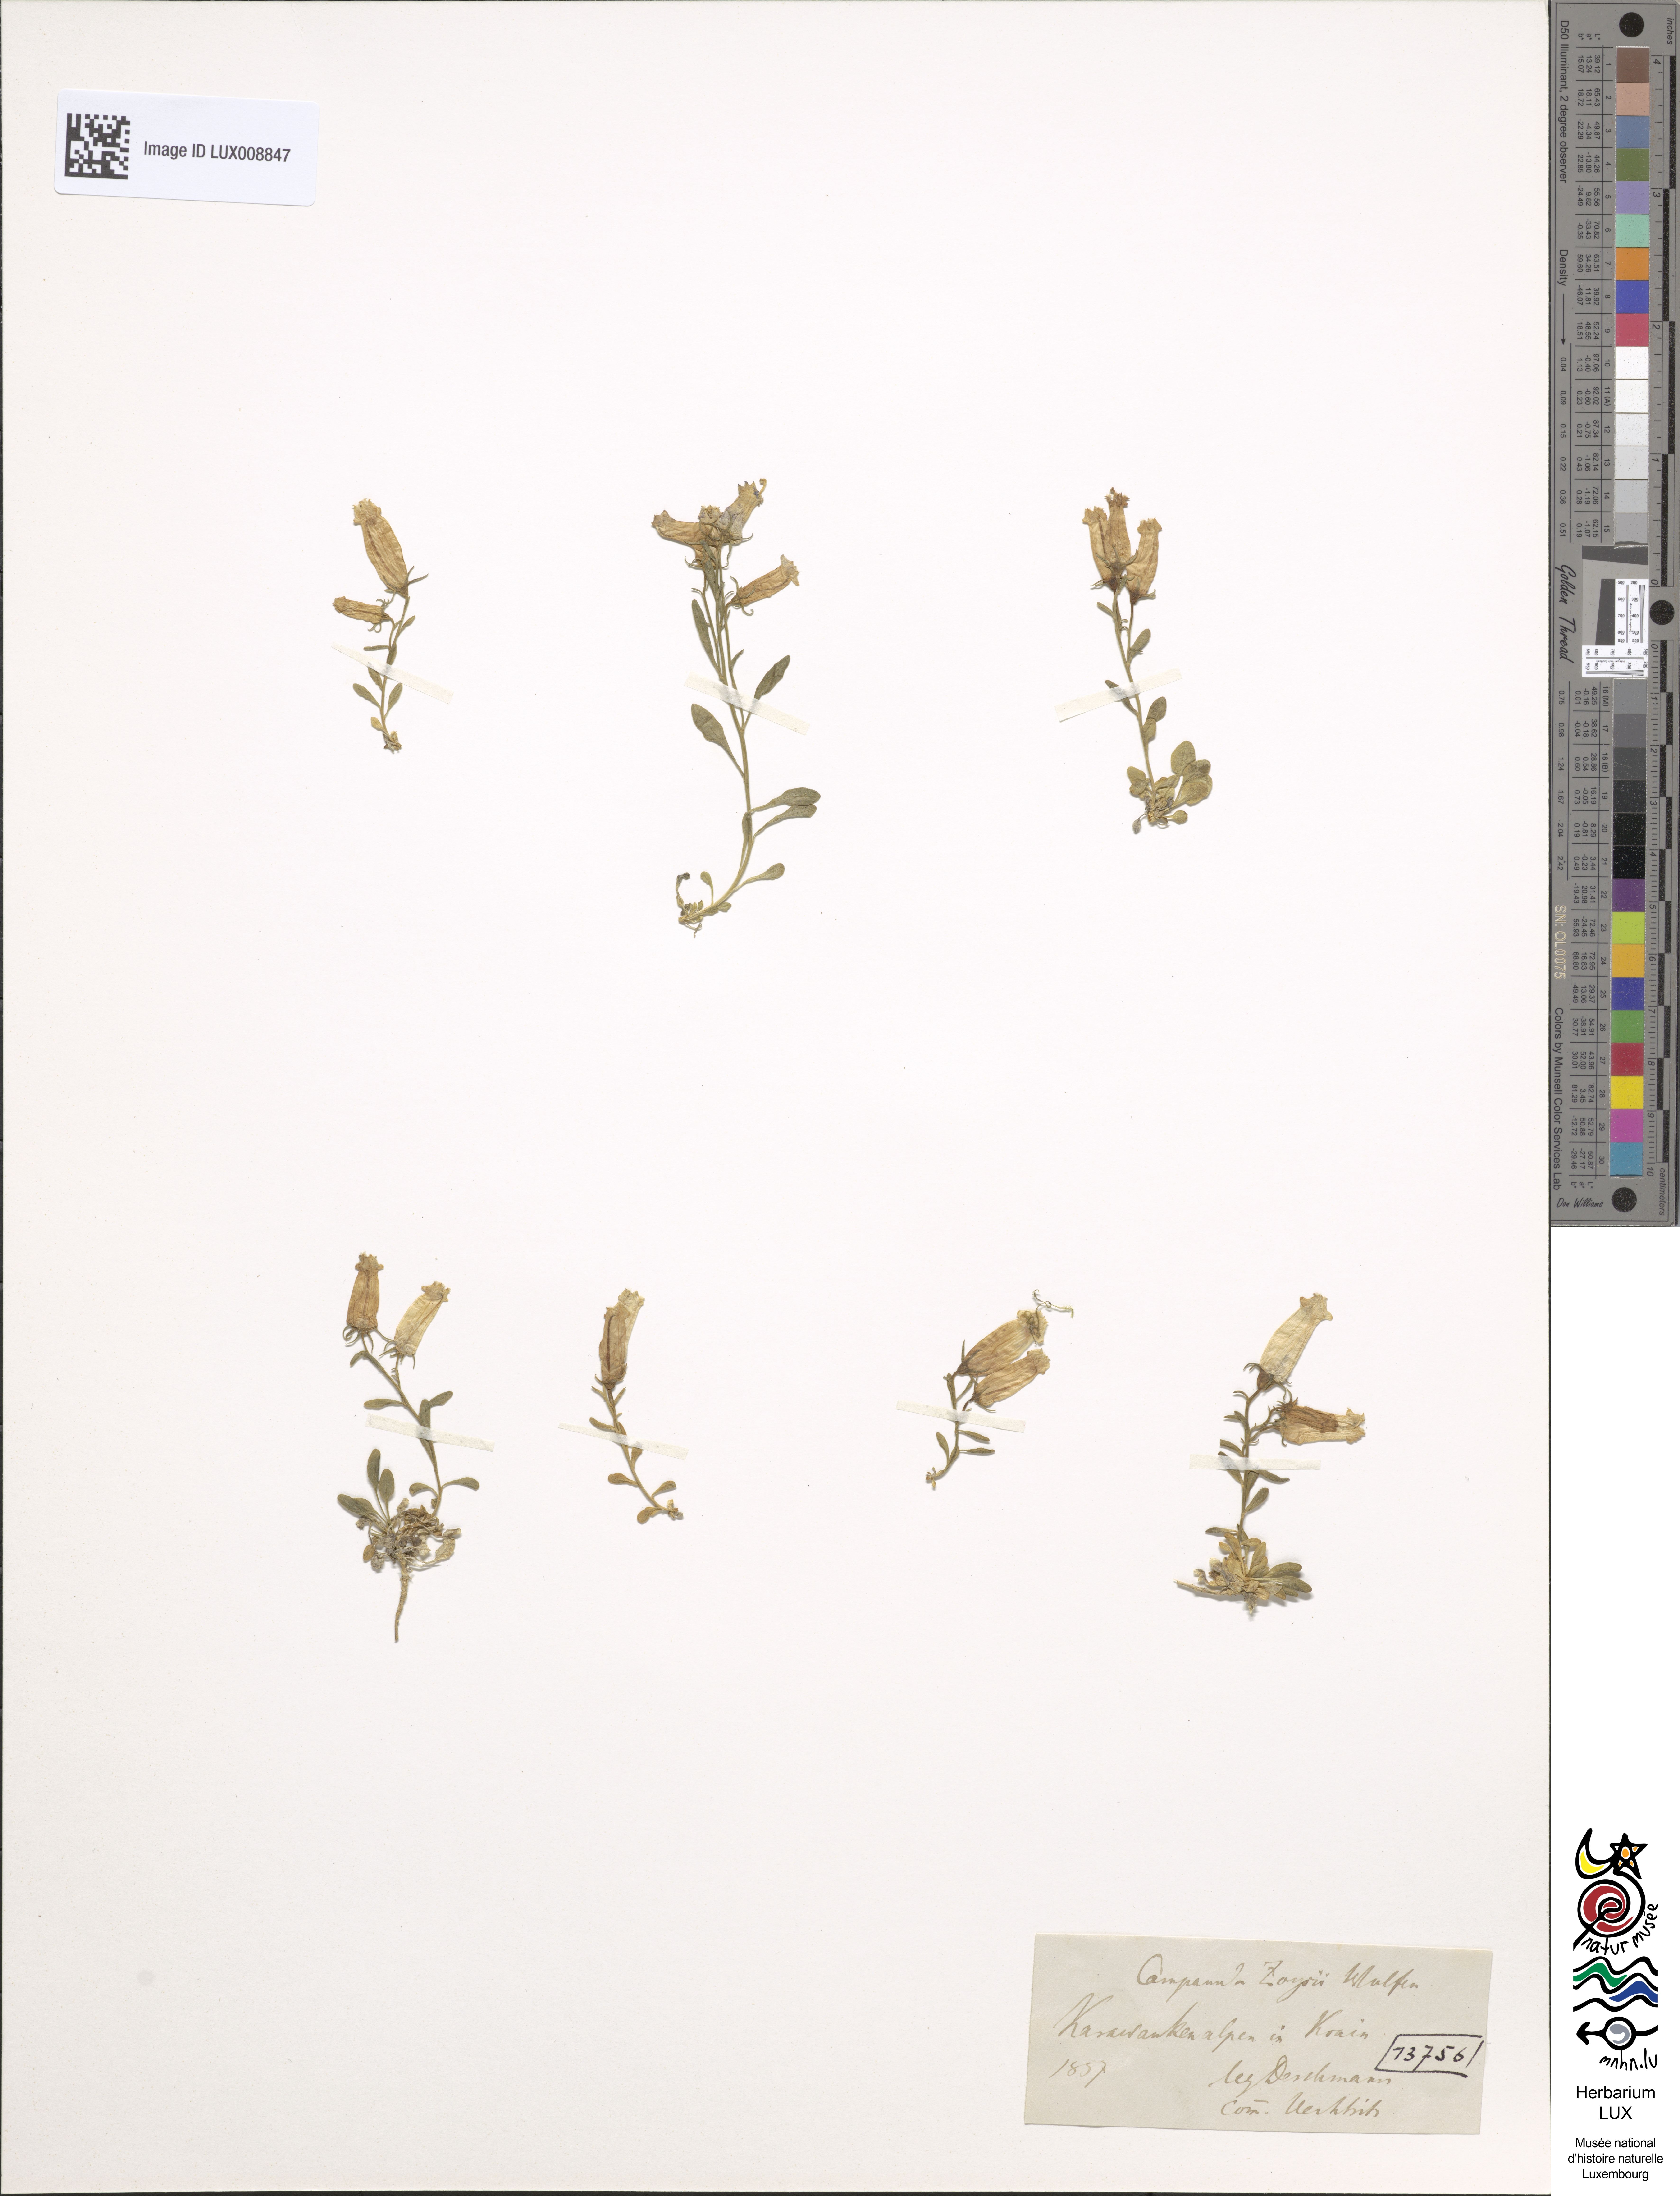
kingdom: Plantae
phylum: Tracheophyta
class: Magnoliopsida
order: Asterales
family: Campanulaceae
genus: Favratia
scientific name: Favratia zoysii
